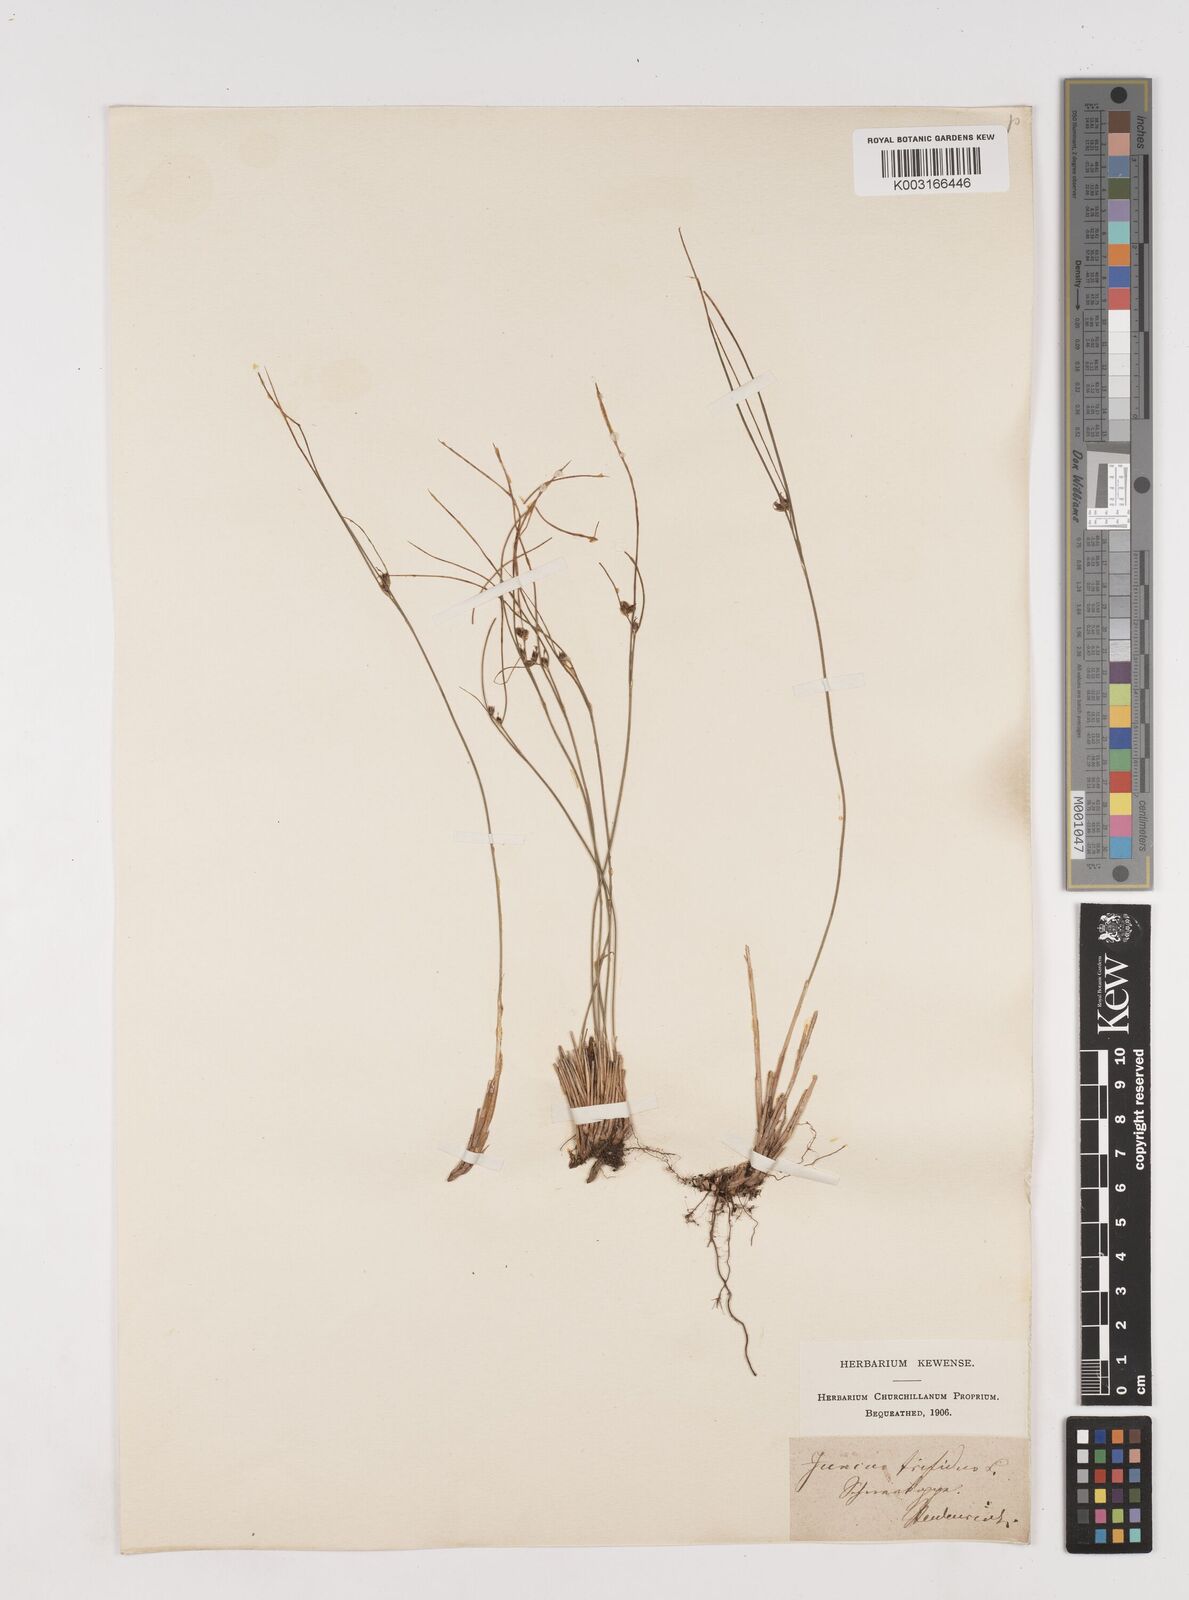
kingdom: Plantae
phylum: Tracheophyta
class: Liliopsida
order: Poales
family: Juncaceae
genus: Oreojuncus
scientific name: Oreojuncus trifidus
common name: Highland rush
